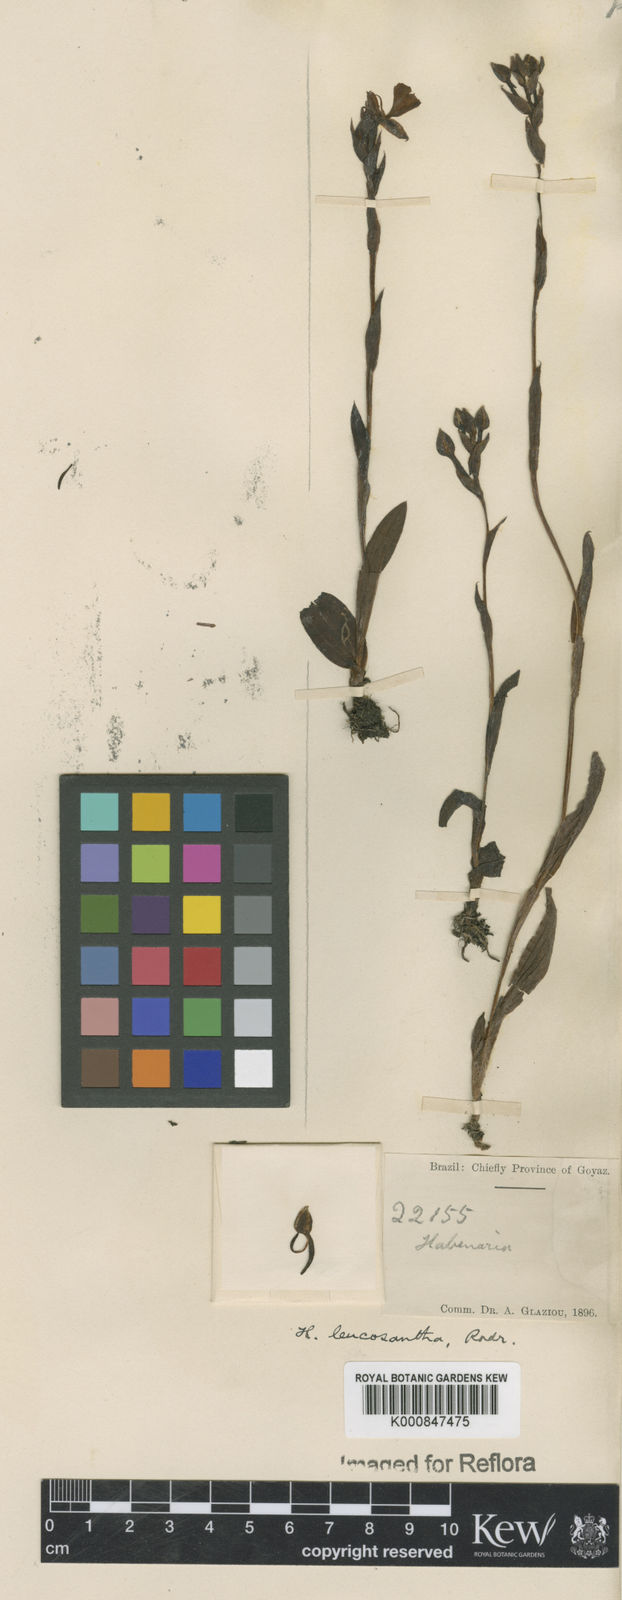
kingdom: Plantae
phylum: Tracheophyta
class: Liliopsida
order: Asparagales
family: Orchidaceae
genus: Habenaria
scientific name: Habenaria
